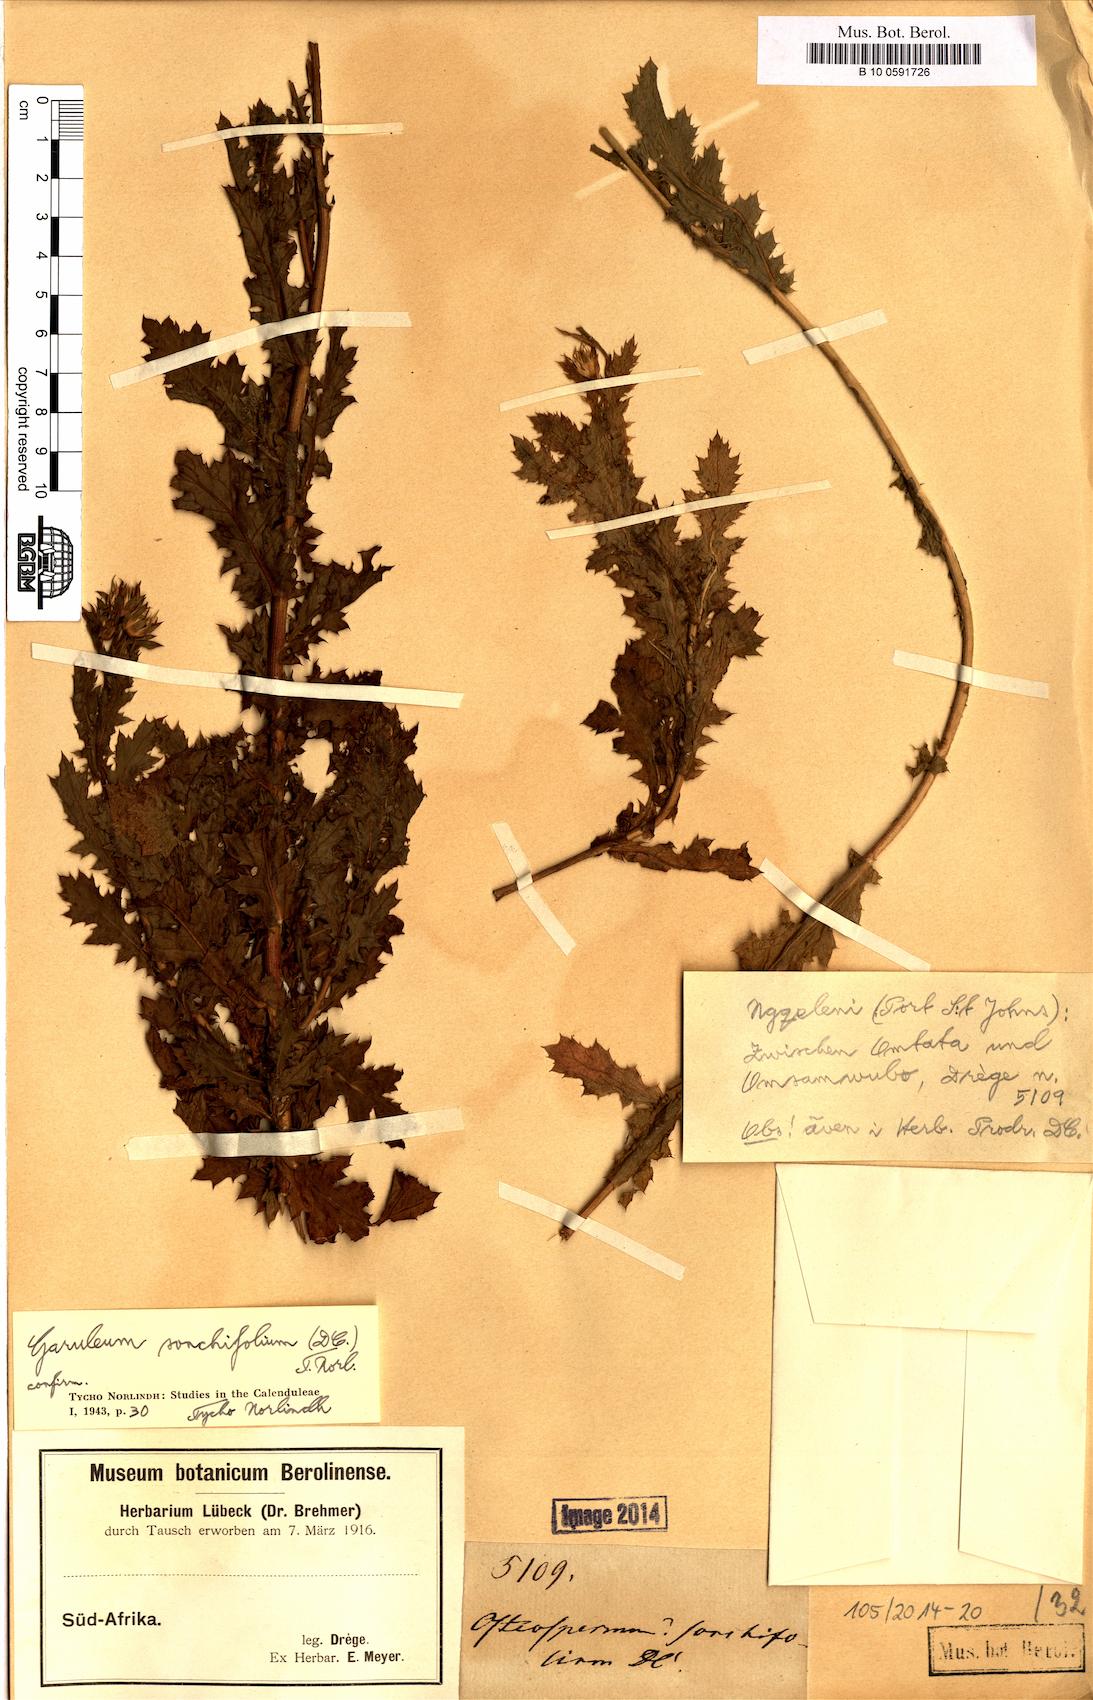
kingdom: Plantae
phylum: Tracheophyta
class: Magnoliopsida
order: Asterales
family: Asteraceae
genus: Garuleum
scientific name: Garuleum sonchifolium
